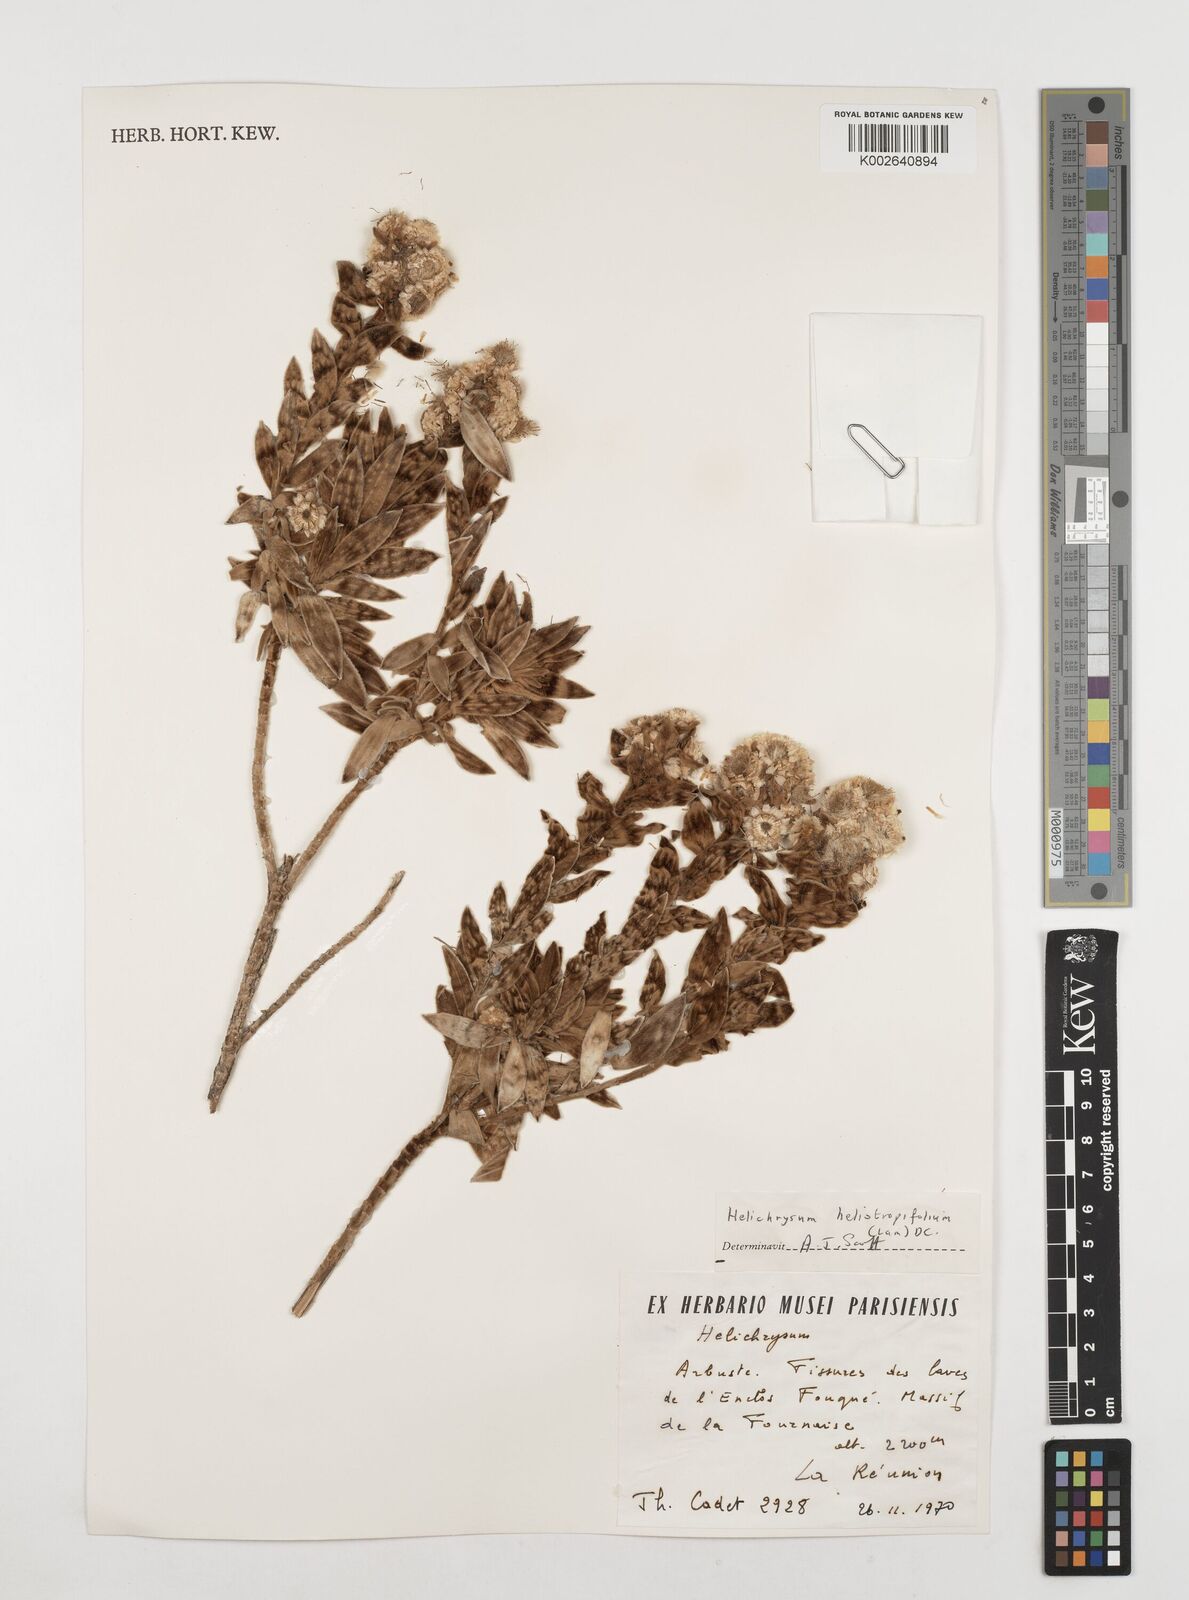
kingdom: Plantae
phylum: Tracheophyta
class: Magnoliopsida
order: Asterales
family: Asteraceae
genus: Helichrysum
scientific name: Helichrysum heliotropifolium
